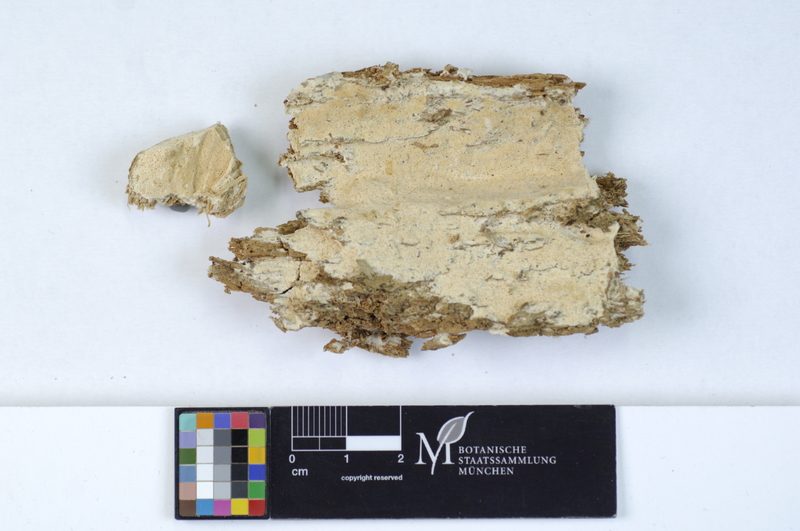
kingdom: Fungi
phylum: Basidiomycota
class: Agaricomycetes
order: Hymenochaetales
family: Rickenellaceae
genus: Sidera
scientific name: Sidera lenis
